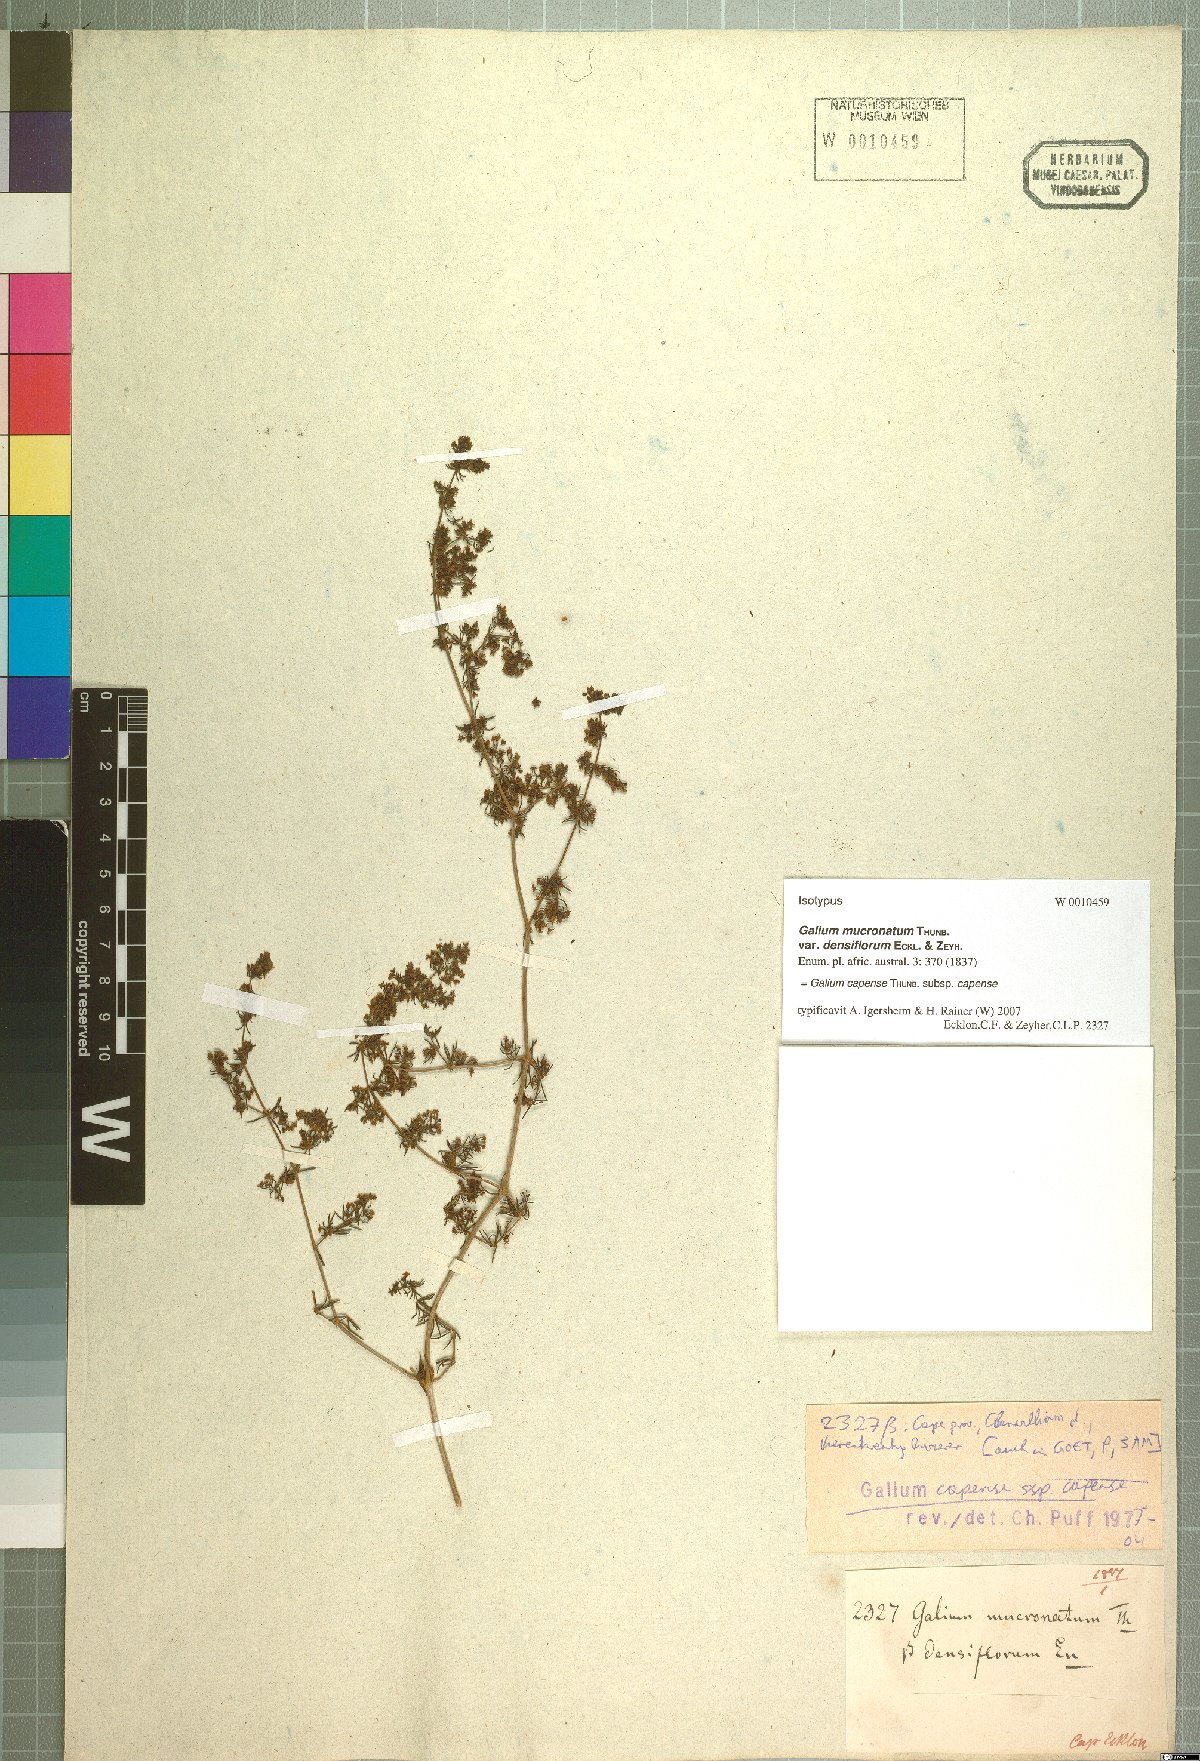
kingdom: Plantae
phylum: Tracheophyta
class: Magnoliopsida
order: Gentianales
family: Rubiaceae
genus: Galium
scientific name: Galium capense
